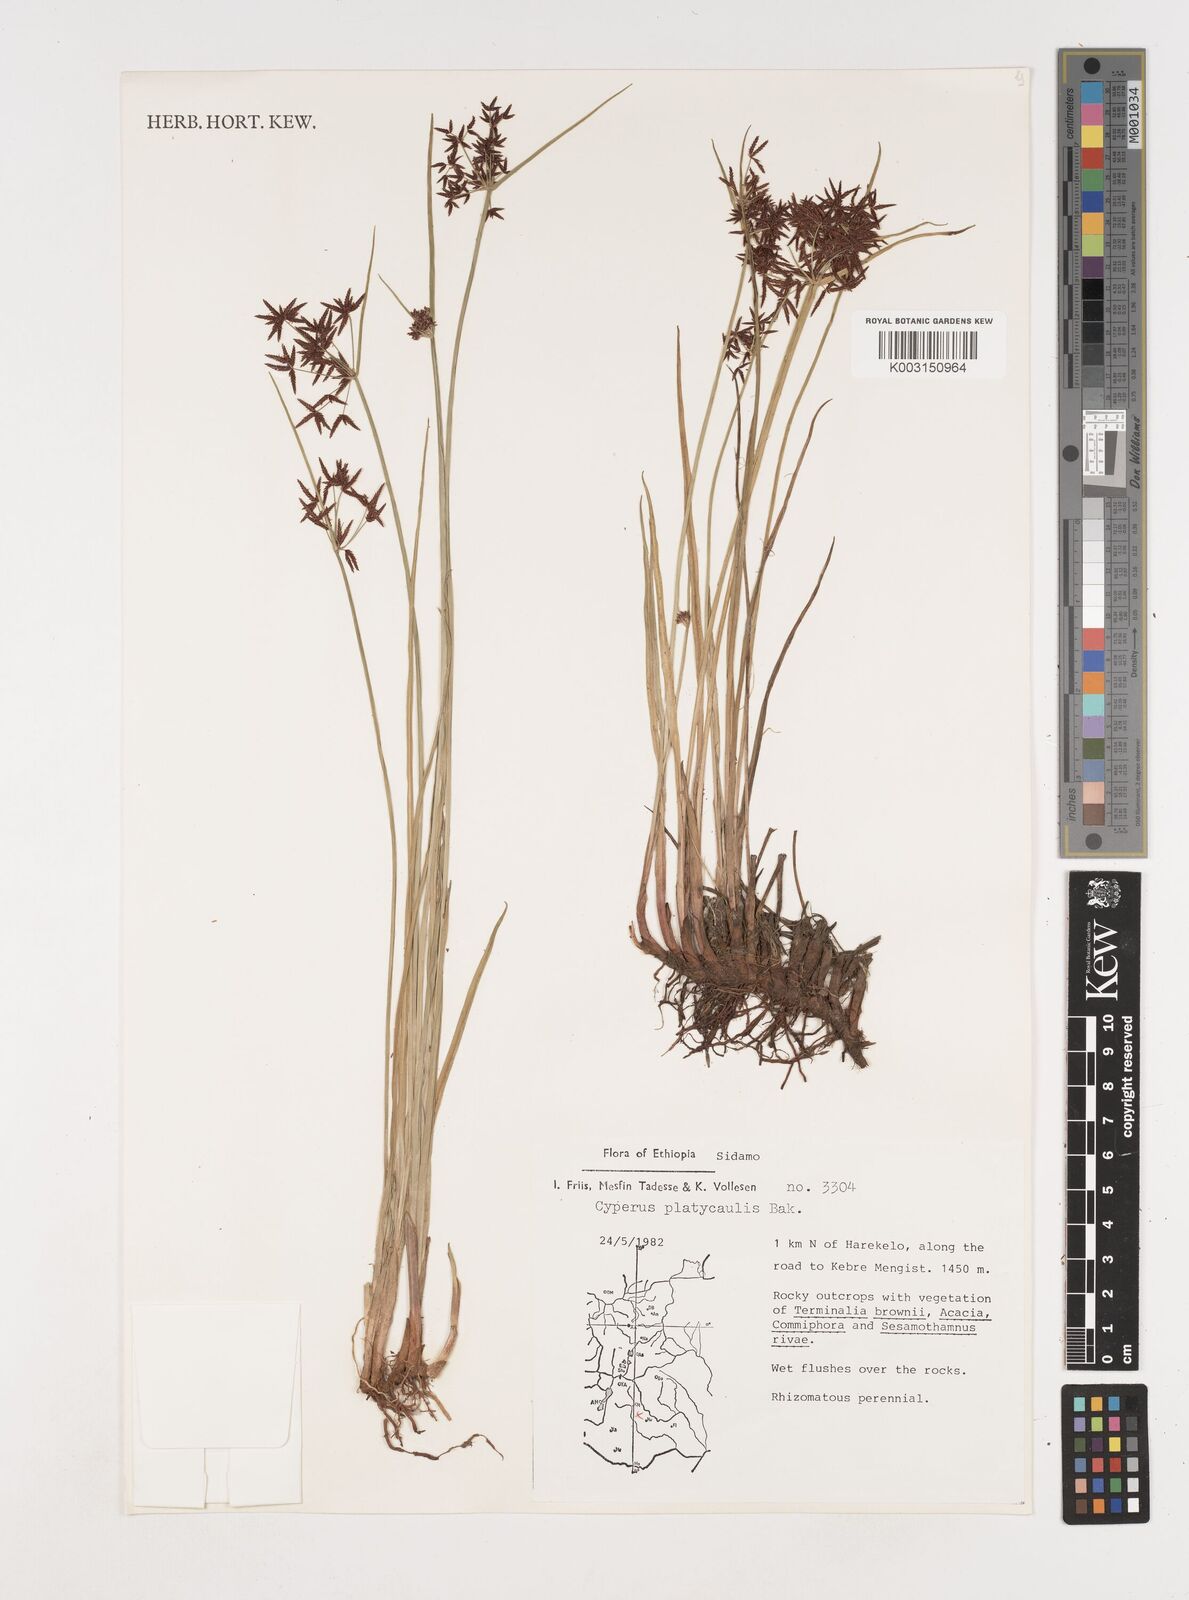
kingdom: Plantae
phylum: Tracheophyta
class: Liliopsida
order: Poales
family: Cyperaceae
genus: Cyperus
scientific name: Cyperus platycaulis
